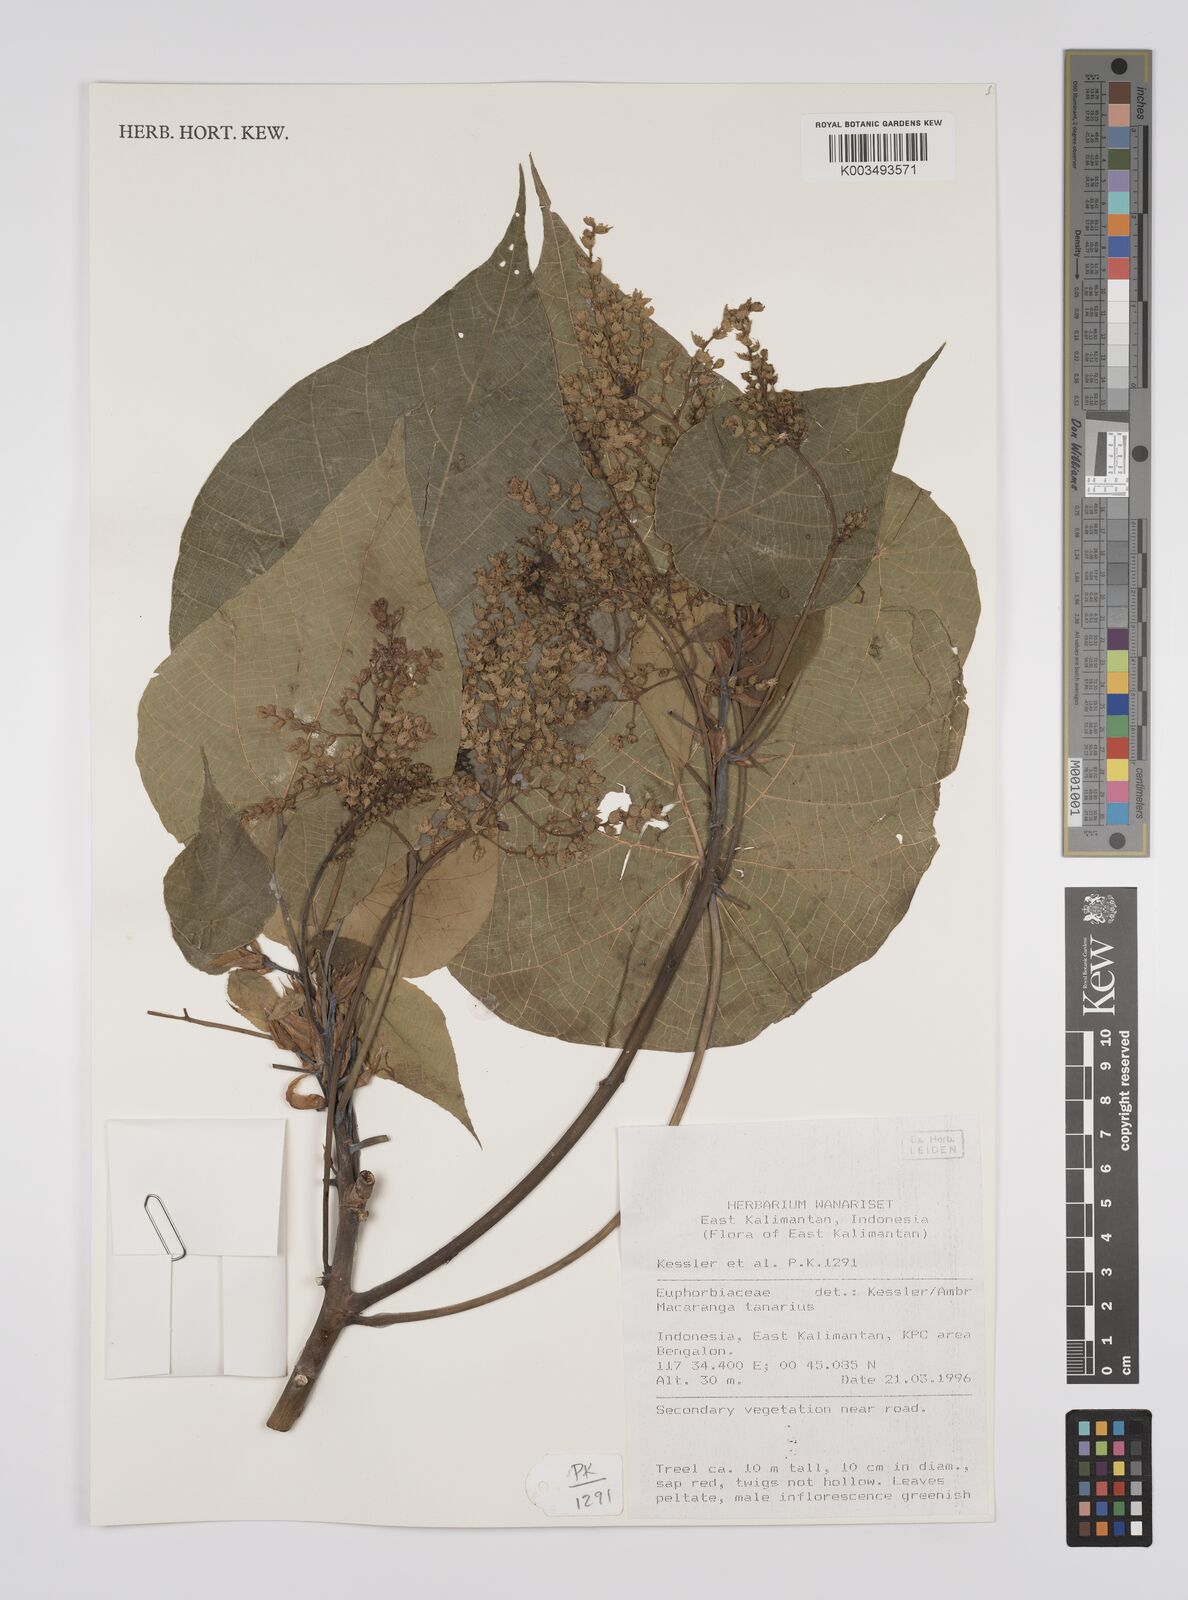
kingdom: Plantae
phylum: Tracheophyta
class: Magnoliopsida
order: Malpighiales
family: Euphorbiaceae
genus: Macaranga
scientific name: Macaranga tanarius
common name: Parasol leaf tree
